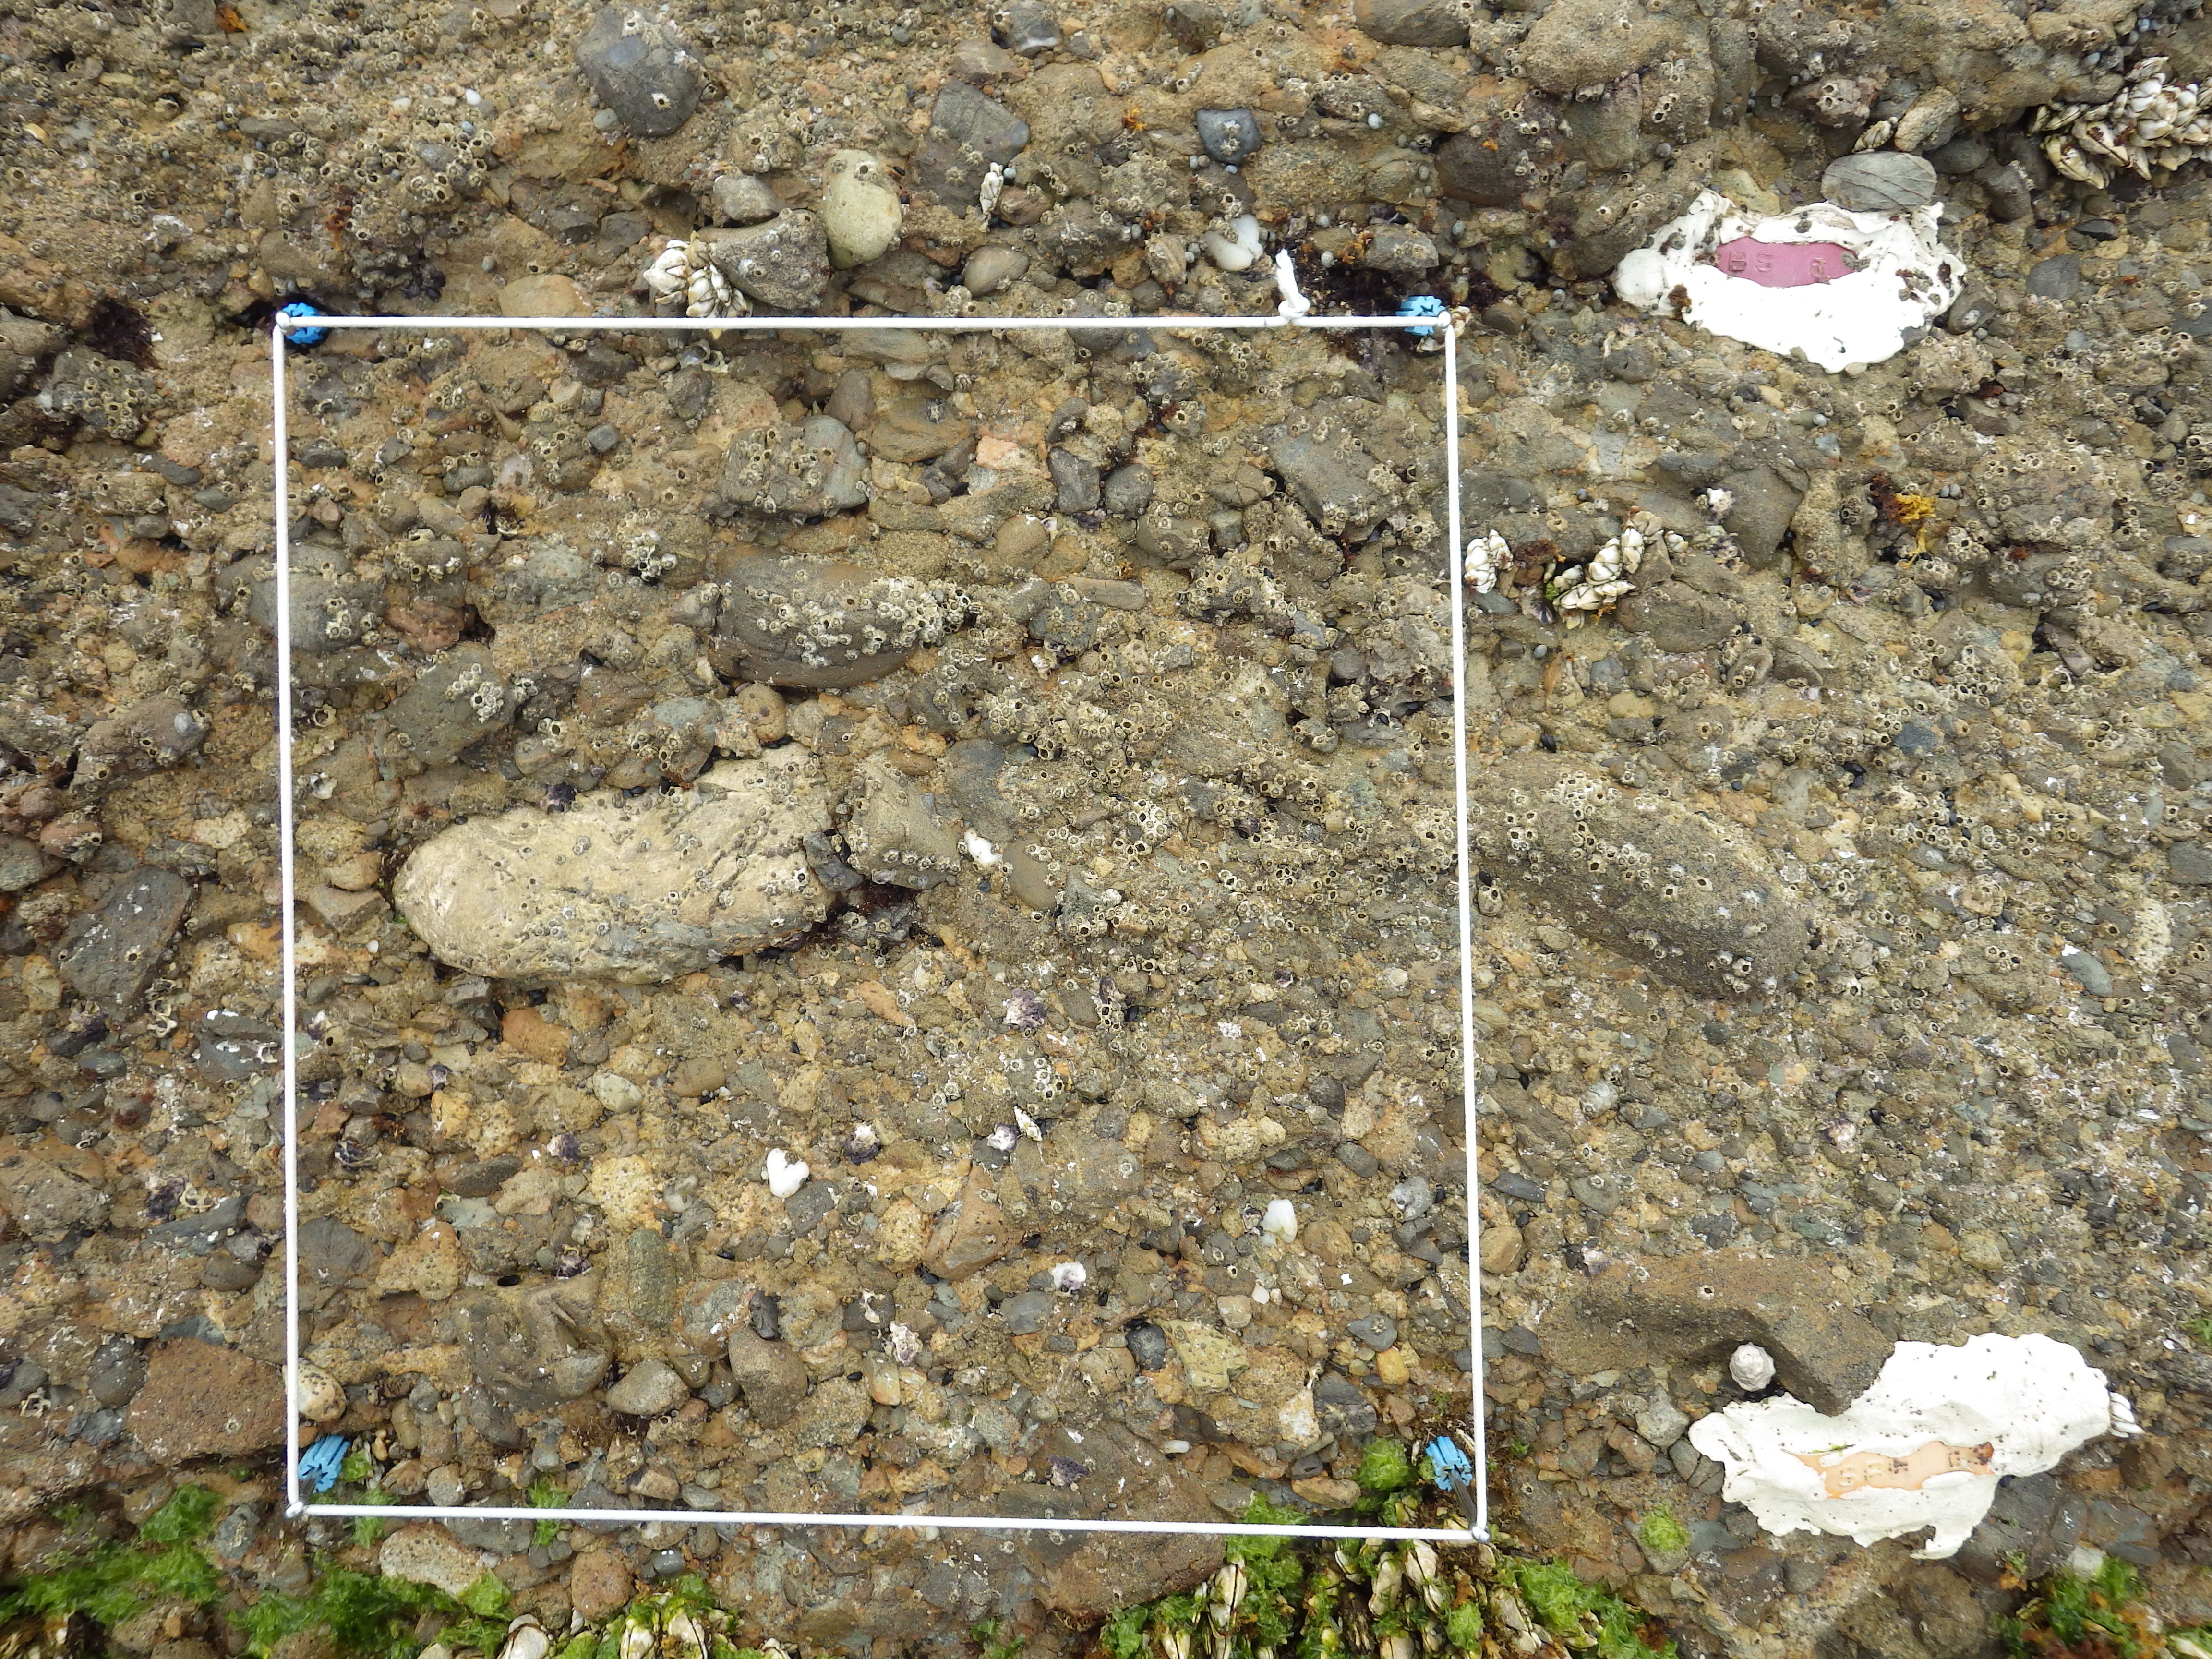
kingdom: Animalia
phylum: Arthropoda
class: Maxillopoda
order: Pedunculata
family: Pollicipedidae
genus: Capitulum
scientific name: Capitulum mitella
